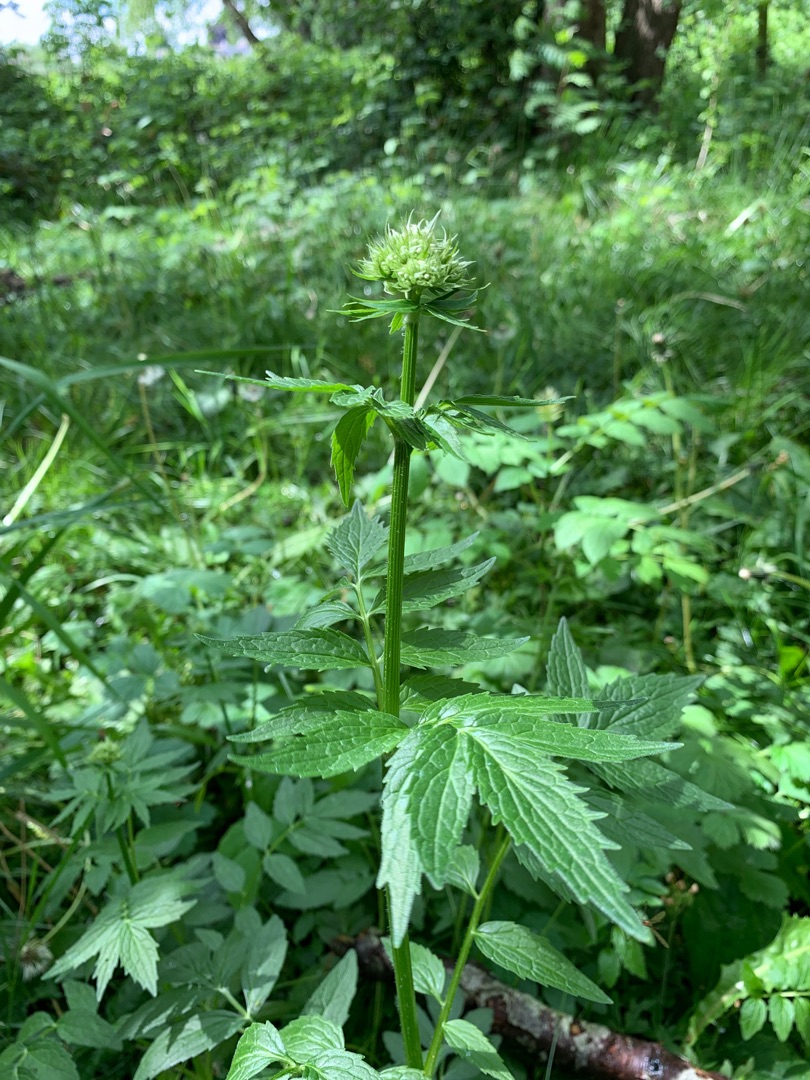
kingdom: Plantae
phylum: Tracheophyta
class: Magnoliopsida
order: Dipsacales
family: Caprifoliaceae
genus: Valeriana
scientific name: Valeriana excelsa
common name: Krybende baldrian
